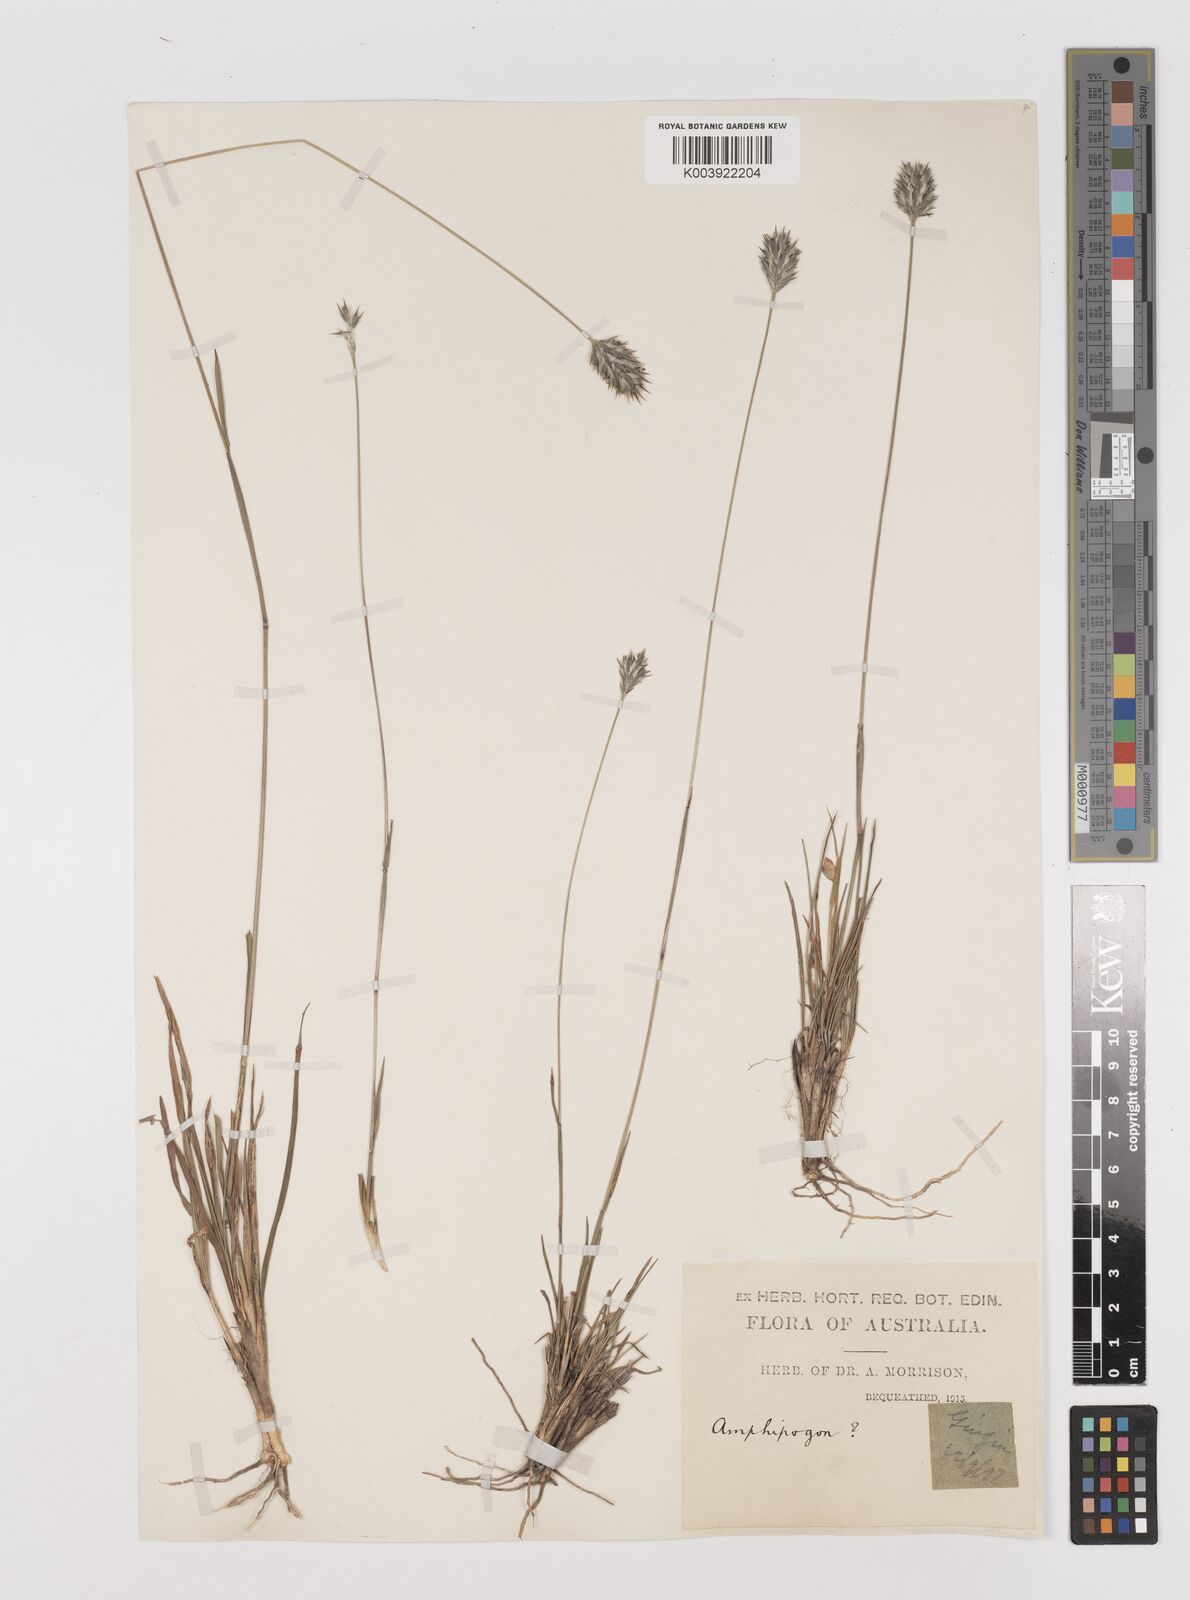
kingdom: Plantae
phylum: Tracheophyta
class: Liliopsida
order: Poales
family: Poaceae
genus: Neurachne
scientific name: Neurachne alopecuroidea
